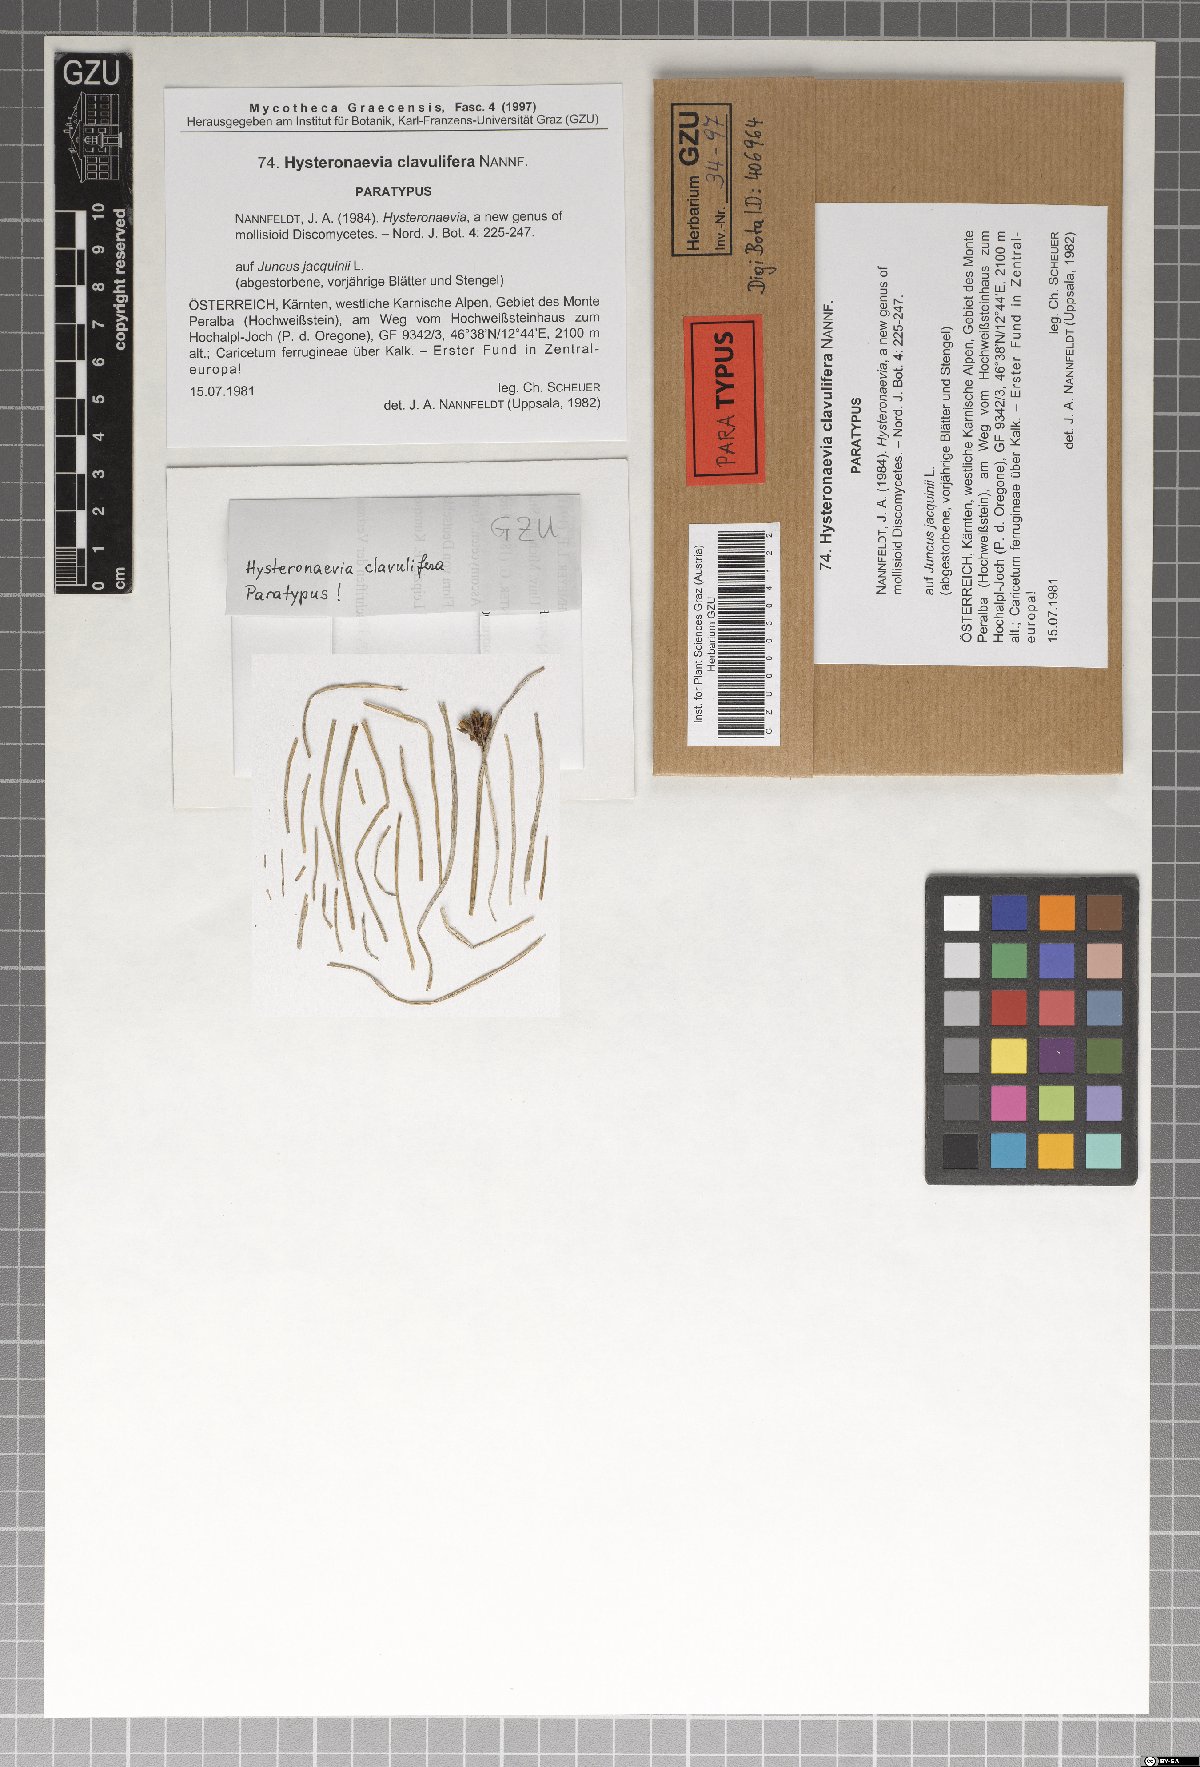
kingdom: Fungi
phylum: Ascomycota
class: Leotiomycetes
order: Helotiales
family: Dermateaceae
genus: Hysteronaevia
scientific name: Hysteronaevia clavulifera
